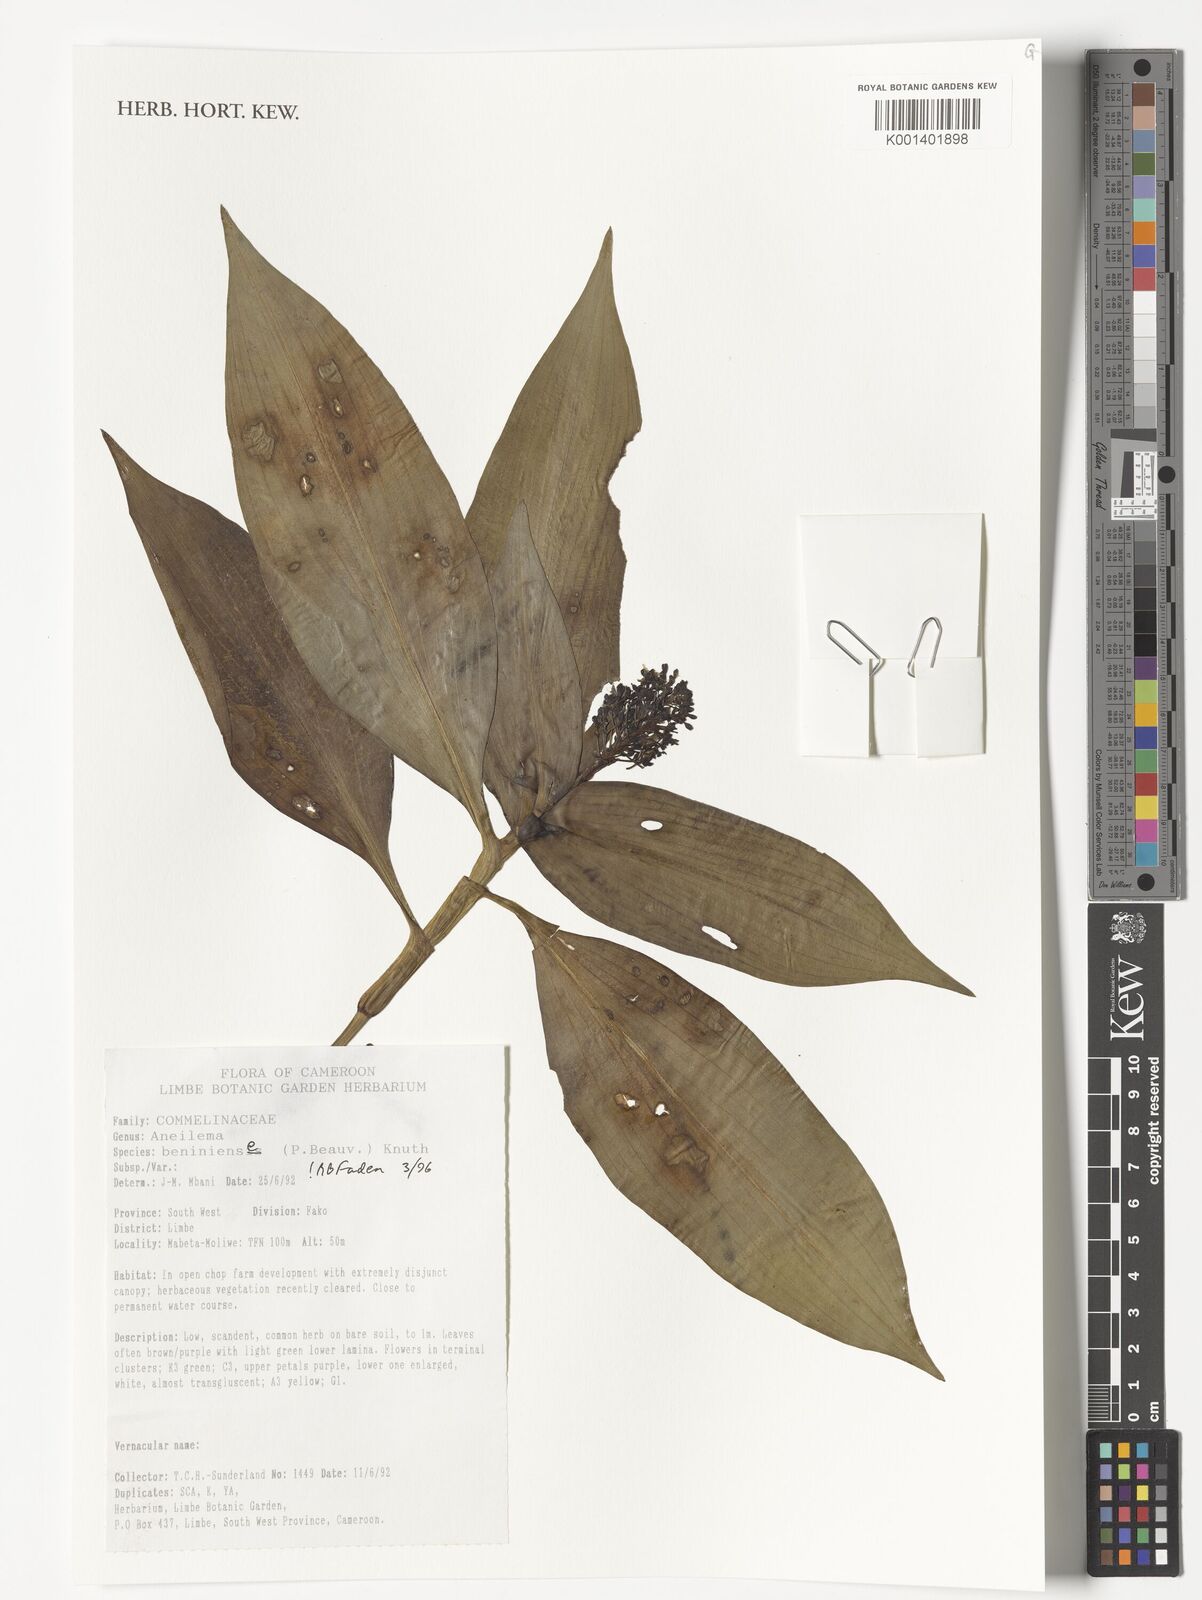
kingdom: Plantae
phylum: Tracheophyta
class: Liliopsida
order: Commelinales
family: Commelinaceae
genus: Aneilema
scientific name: Aneilema beniniense
